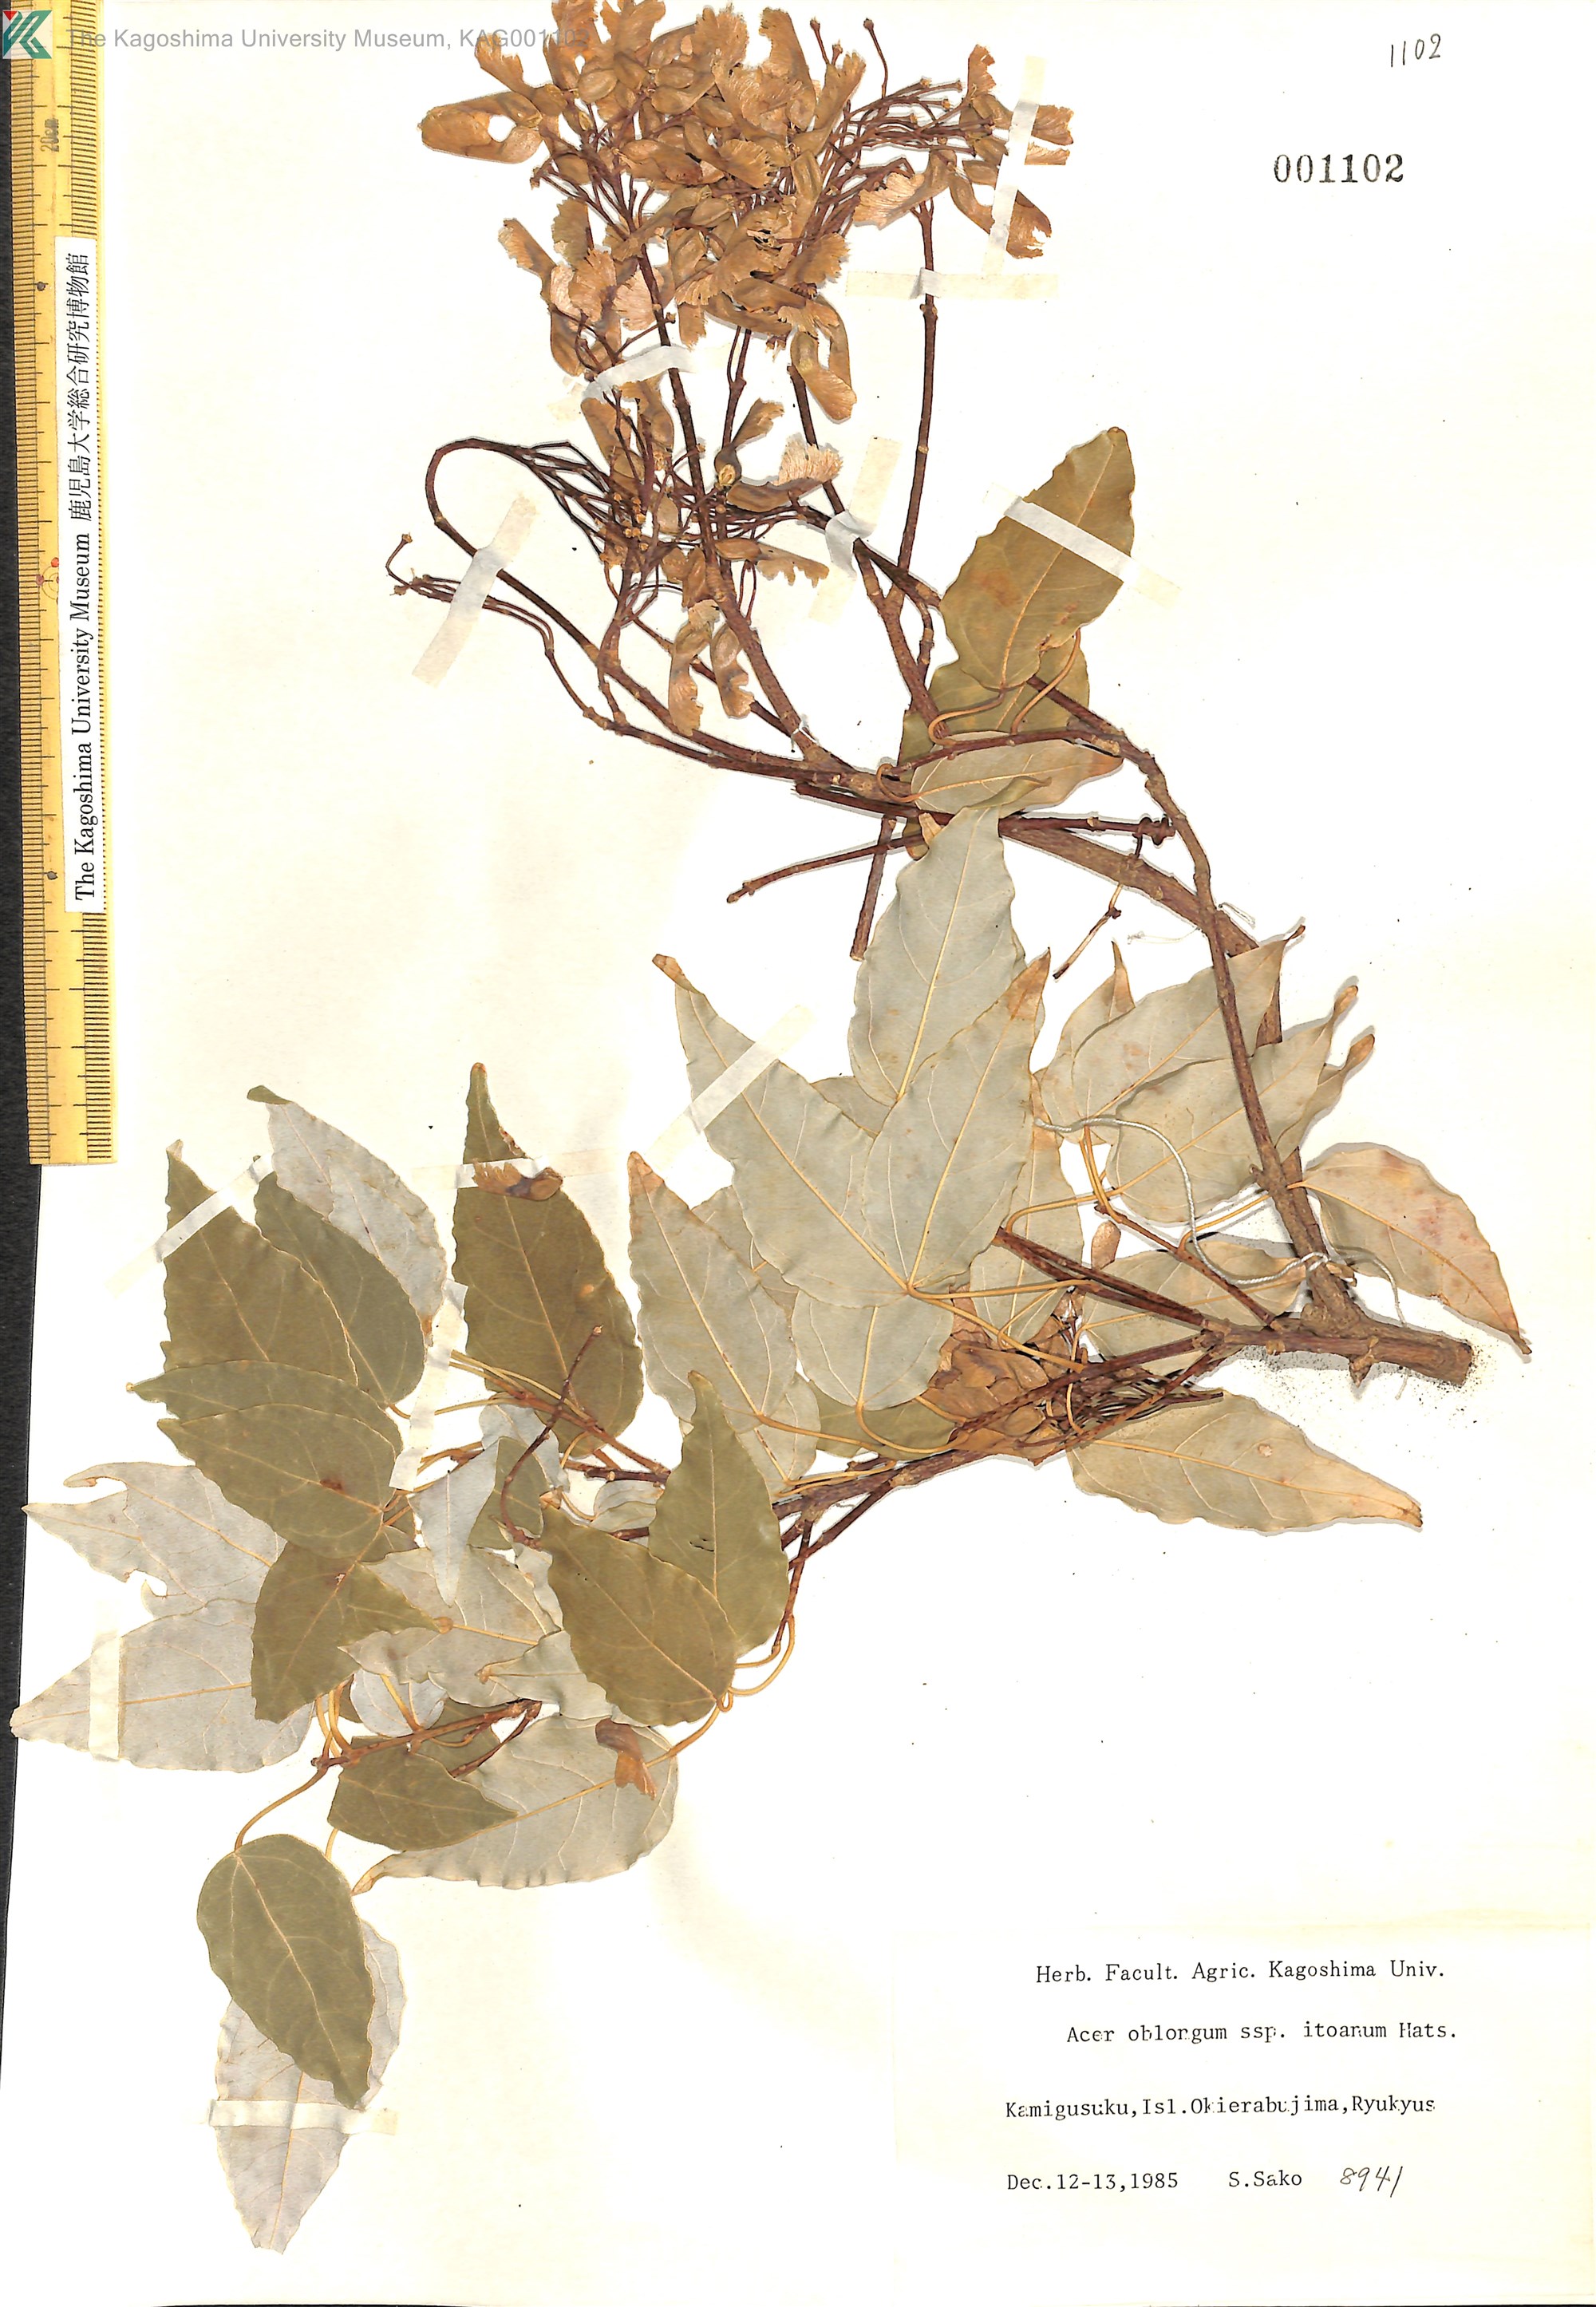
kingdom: Plantae
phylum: Tracheophyta
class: Magnoliopsida
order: Sapindales
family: Sapindaceae
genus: Acer
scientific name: Acer oblongum
